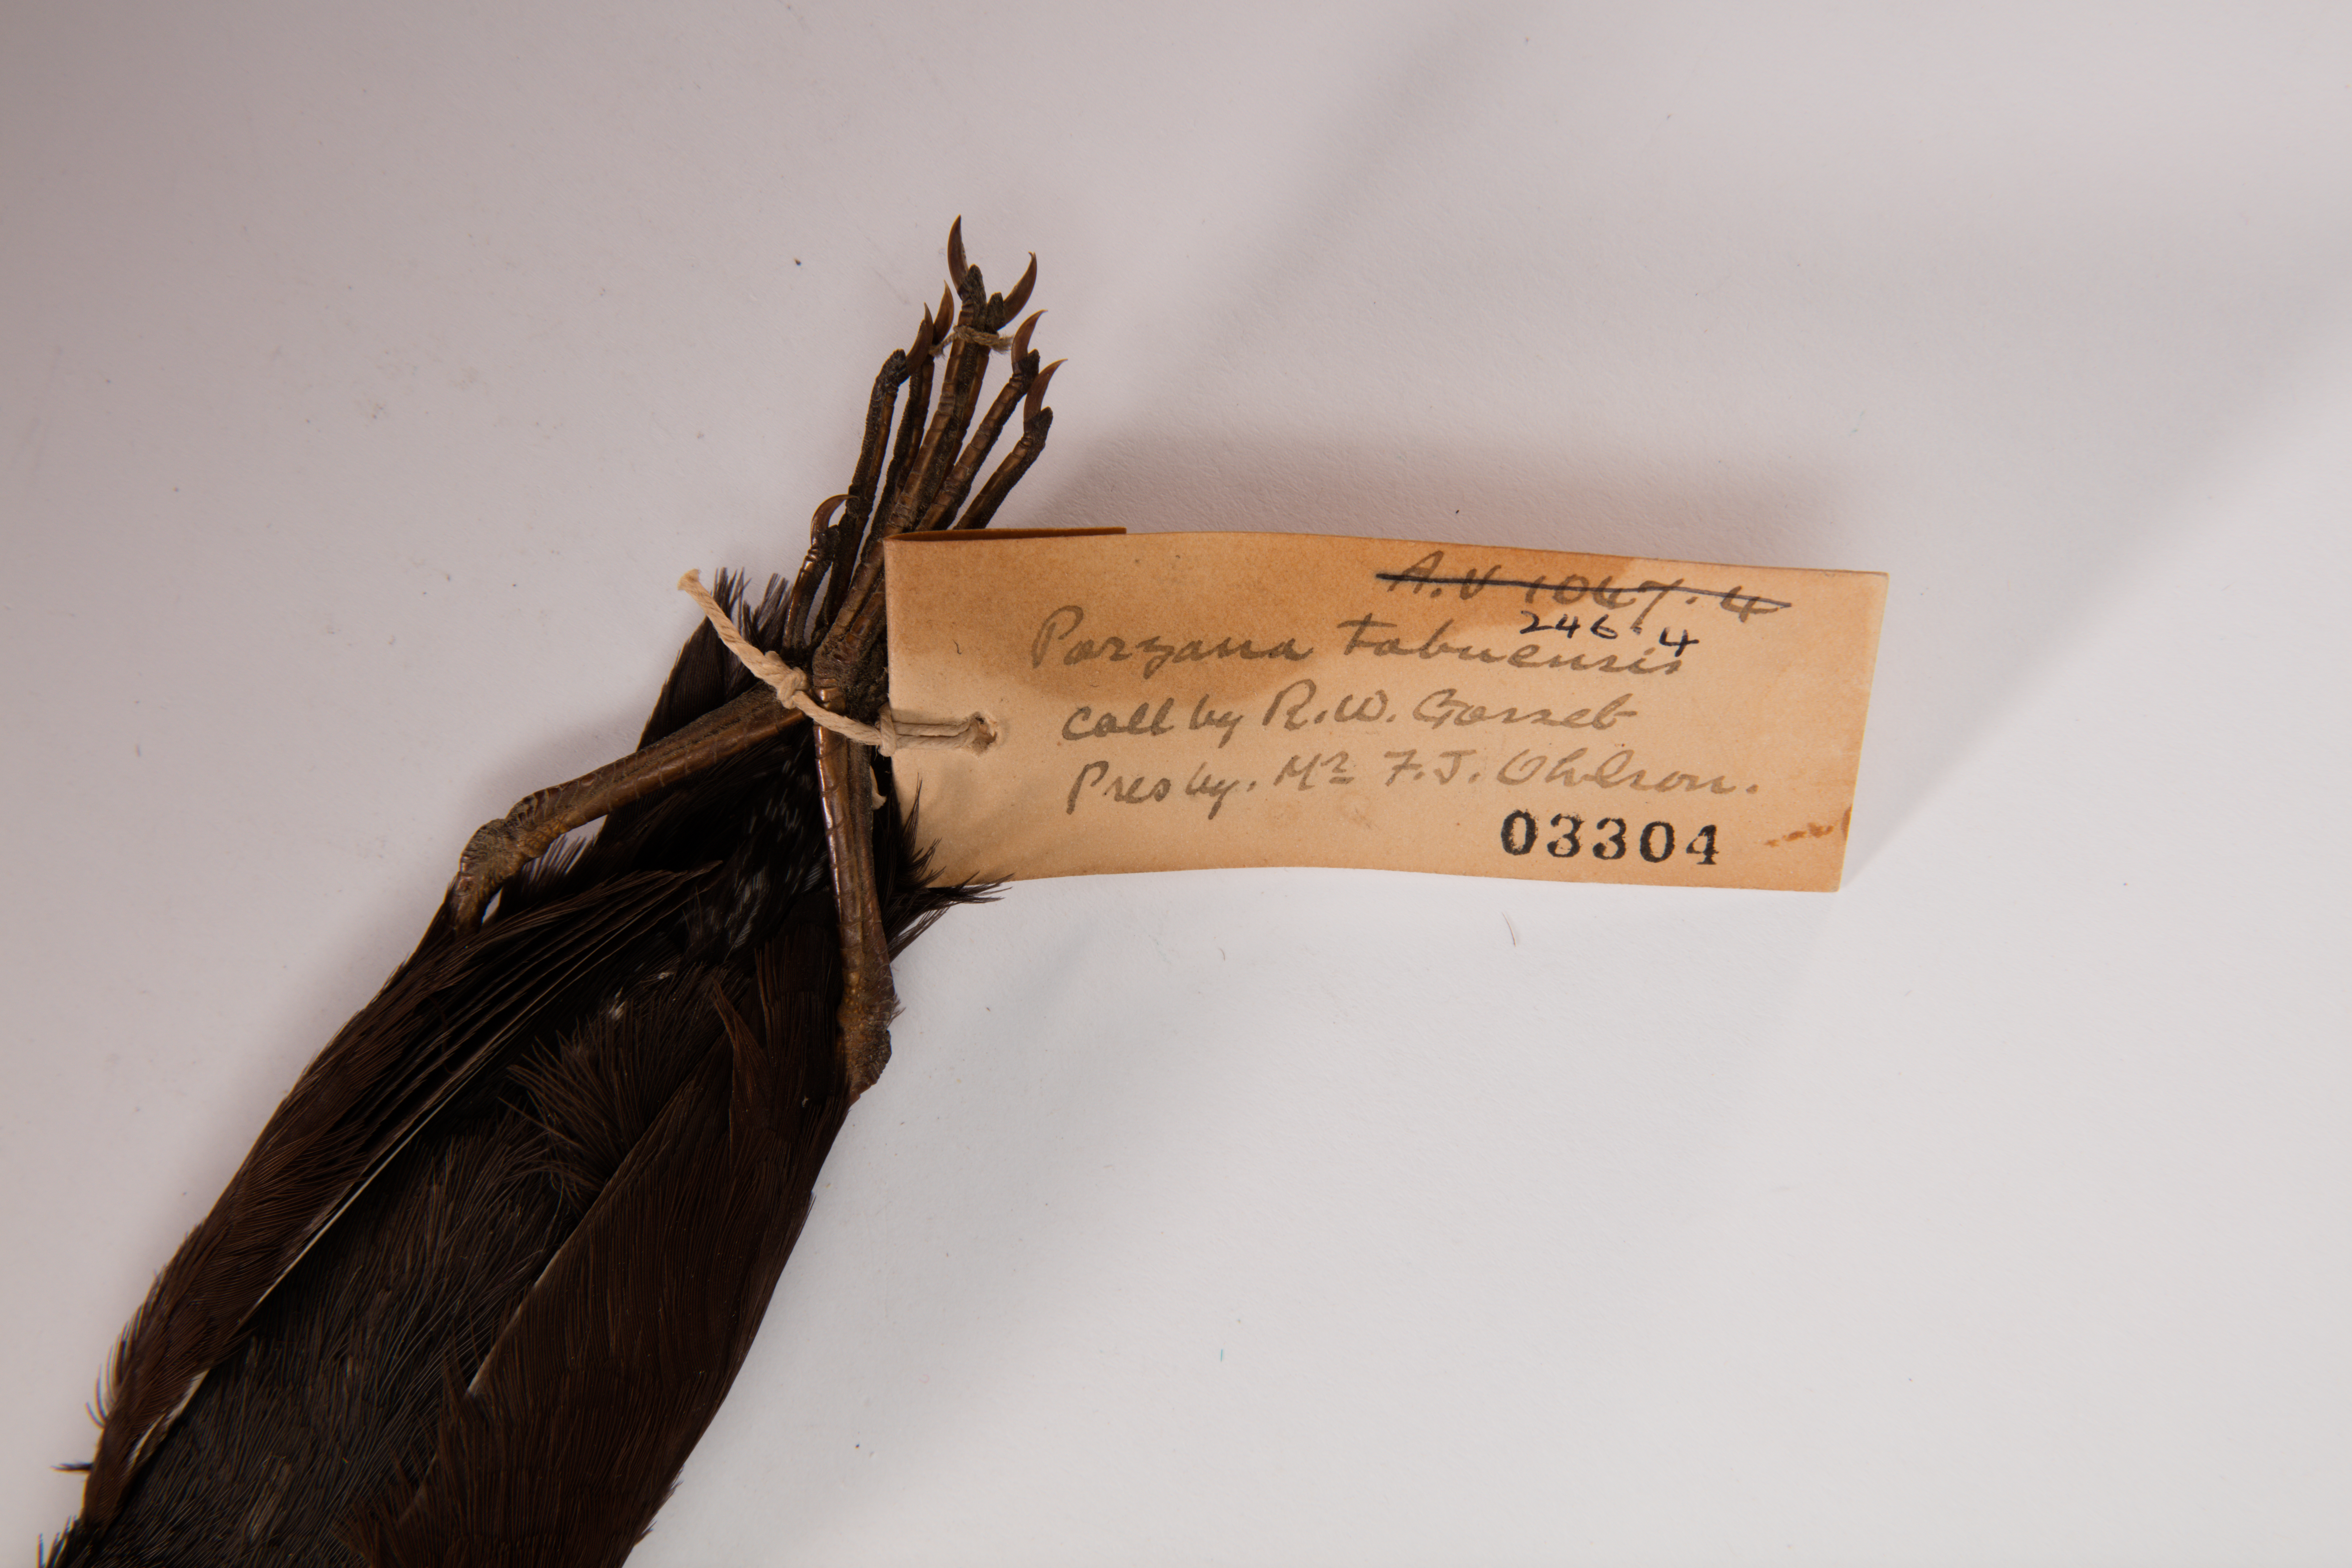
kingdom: Animalia
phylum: Chordata
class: Aves
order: Gruiformes
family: Rallidae
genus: Porzana
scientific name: Porzana tabuensis
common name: Spotless crake
